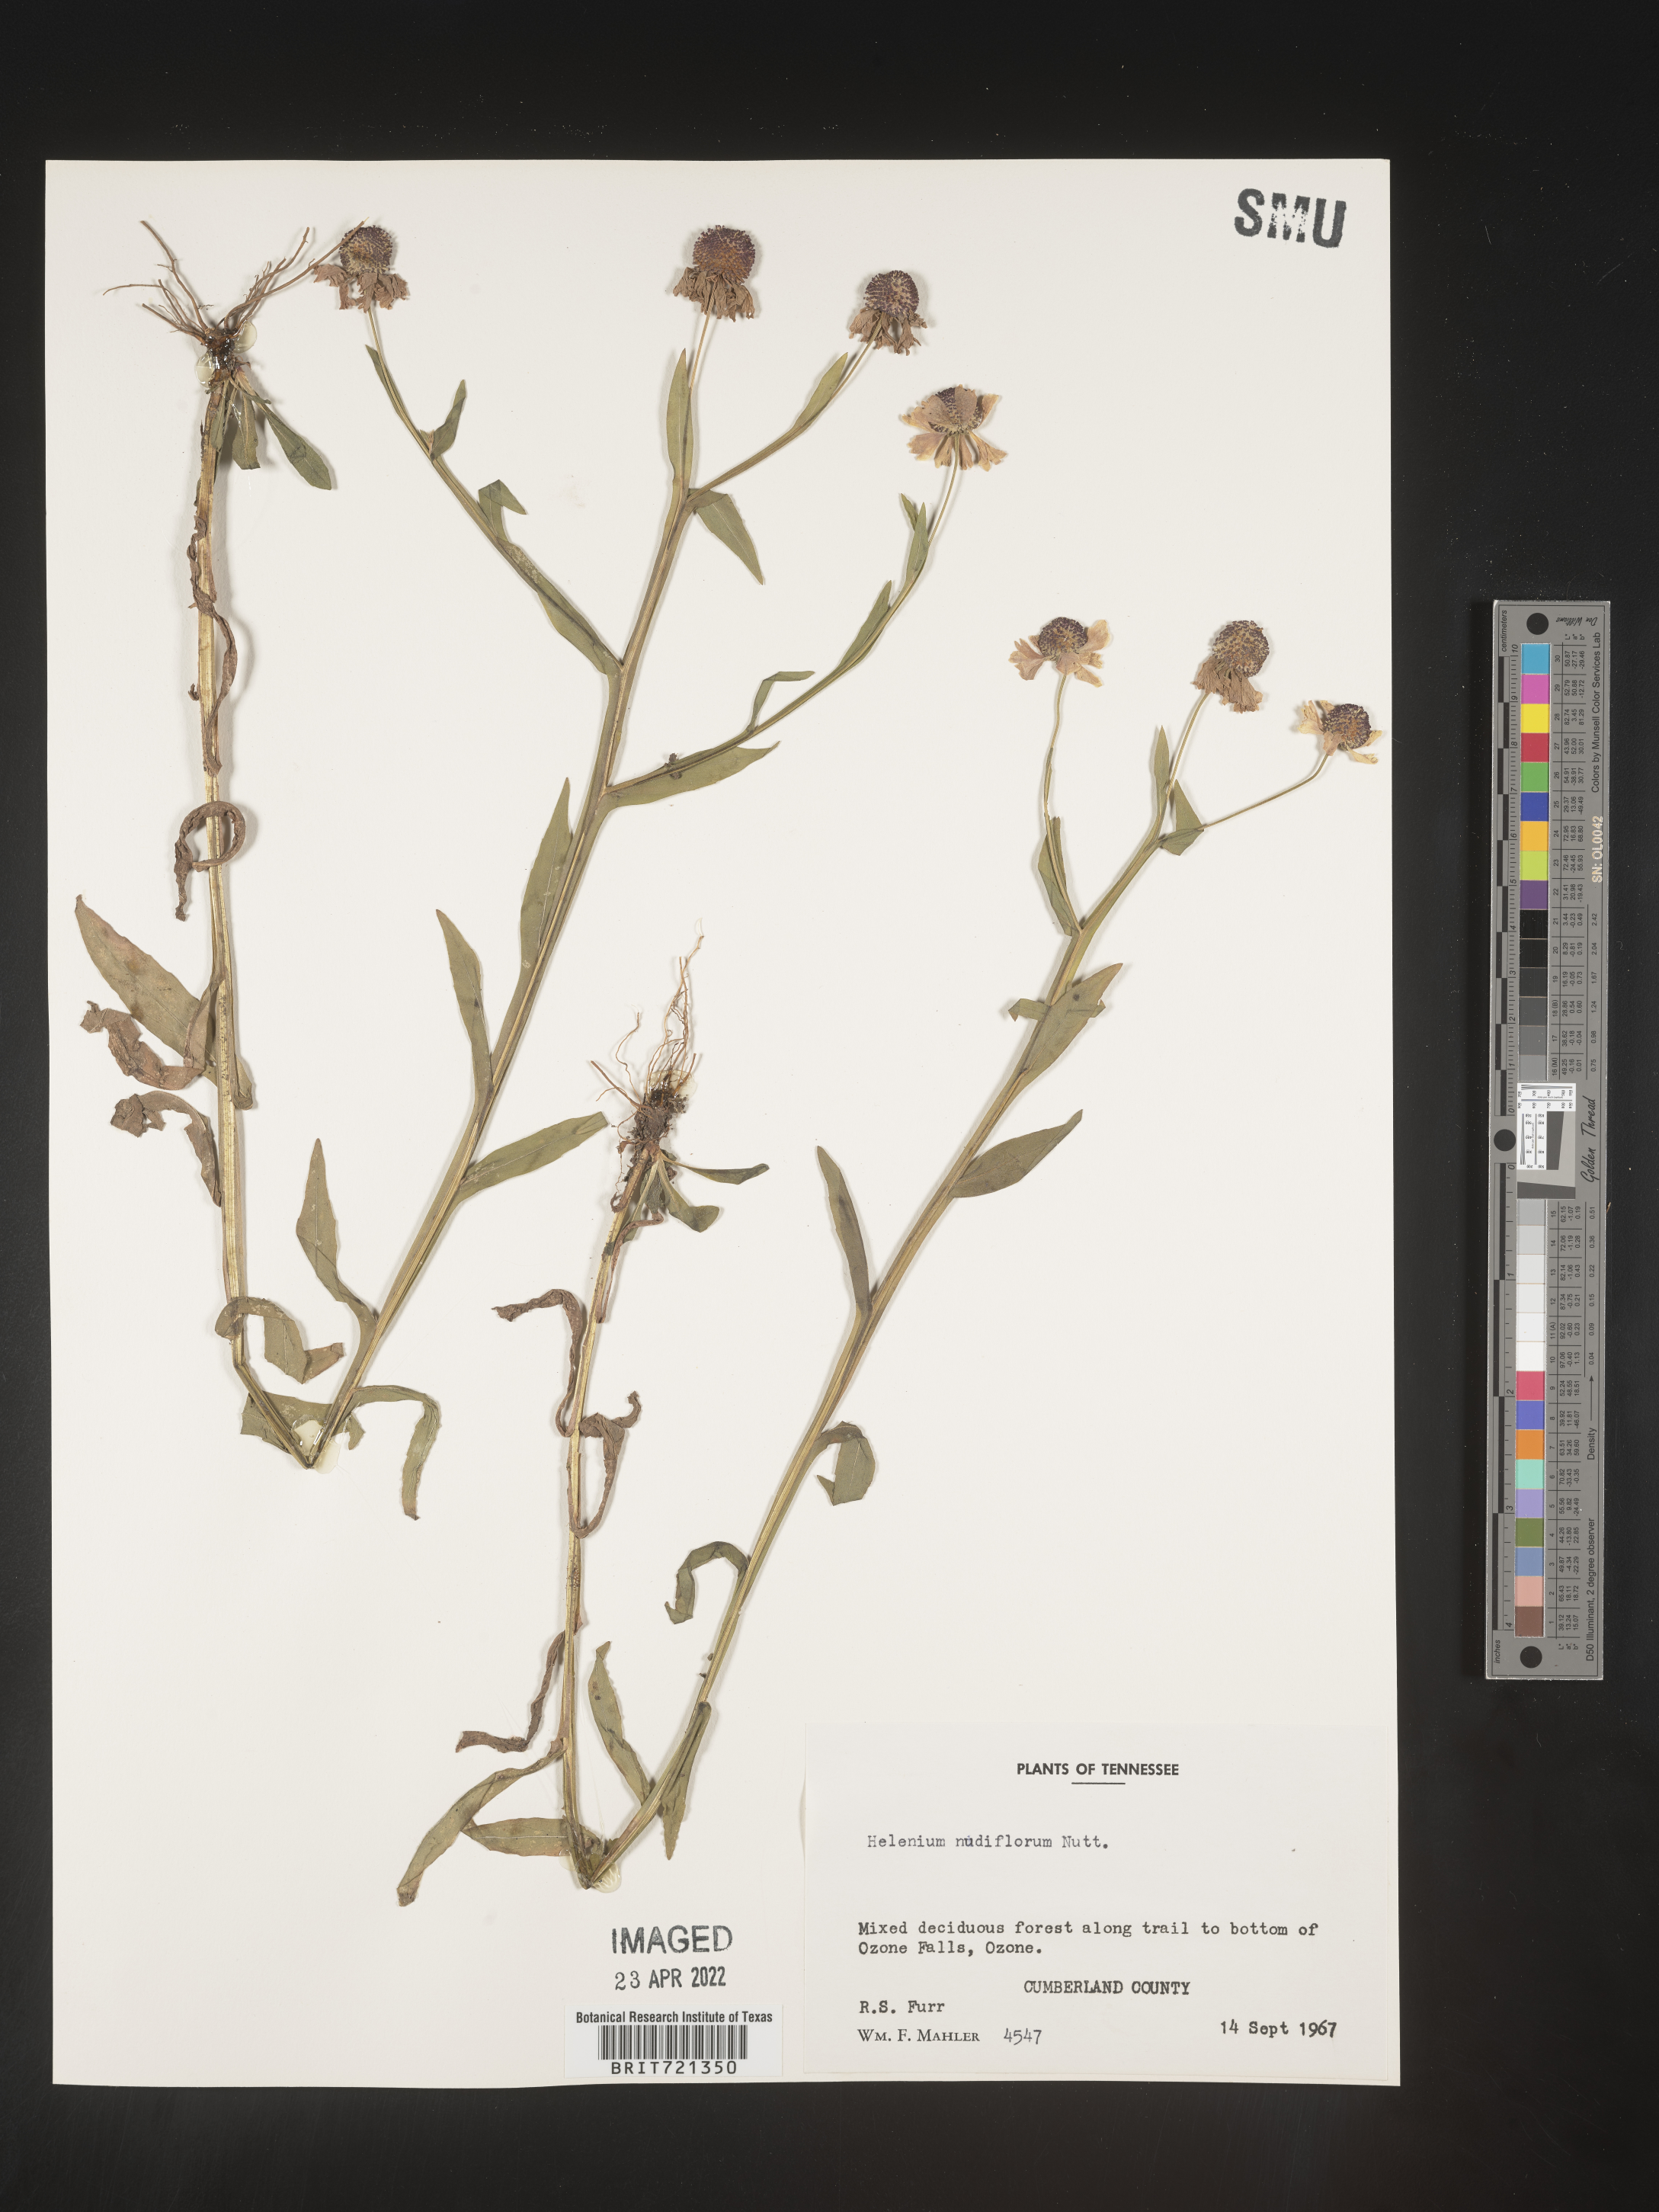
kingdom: Plantae
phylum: Tracheophyta
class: Magnoliopsida
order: Asterales
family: Asteraceae
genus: Helenium
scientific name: Helenium flexuosum
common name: Naked-flowered sneezeweed
